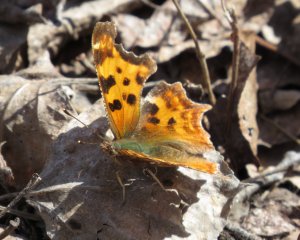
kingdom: Animalia
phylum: Arthropoda
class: Insecta
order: Lepidoptera
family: Nymphalidae
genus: Polygonia
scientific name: Polygonia faunus
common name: Green Comma
